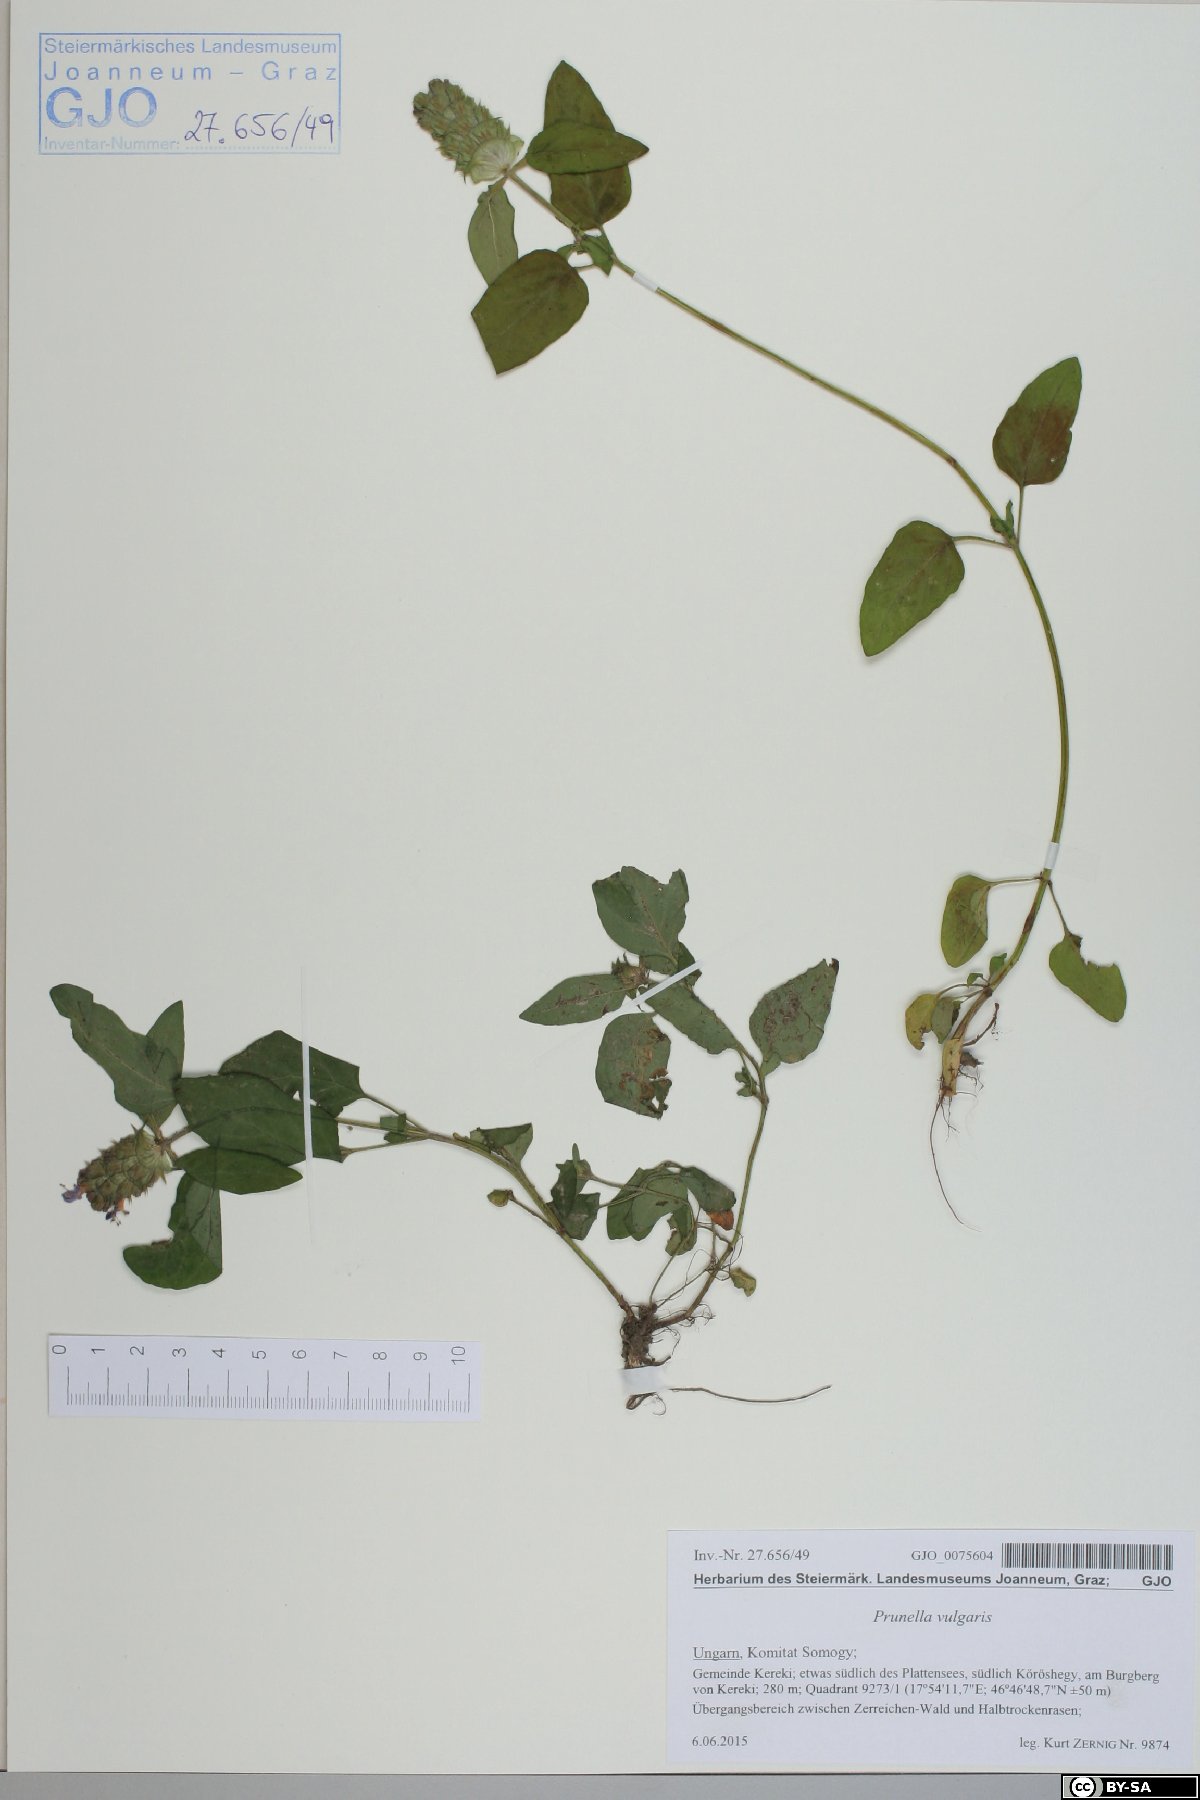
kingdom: Plantae
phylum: Tracheophyta
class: Magnoliopsida
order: Lamiales
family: Lamiaceae
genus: Prunella
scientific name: Prunella vulgaris
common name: Heal-all
